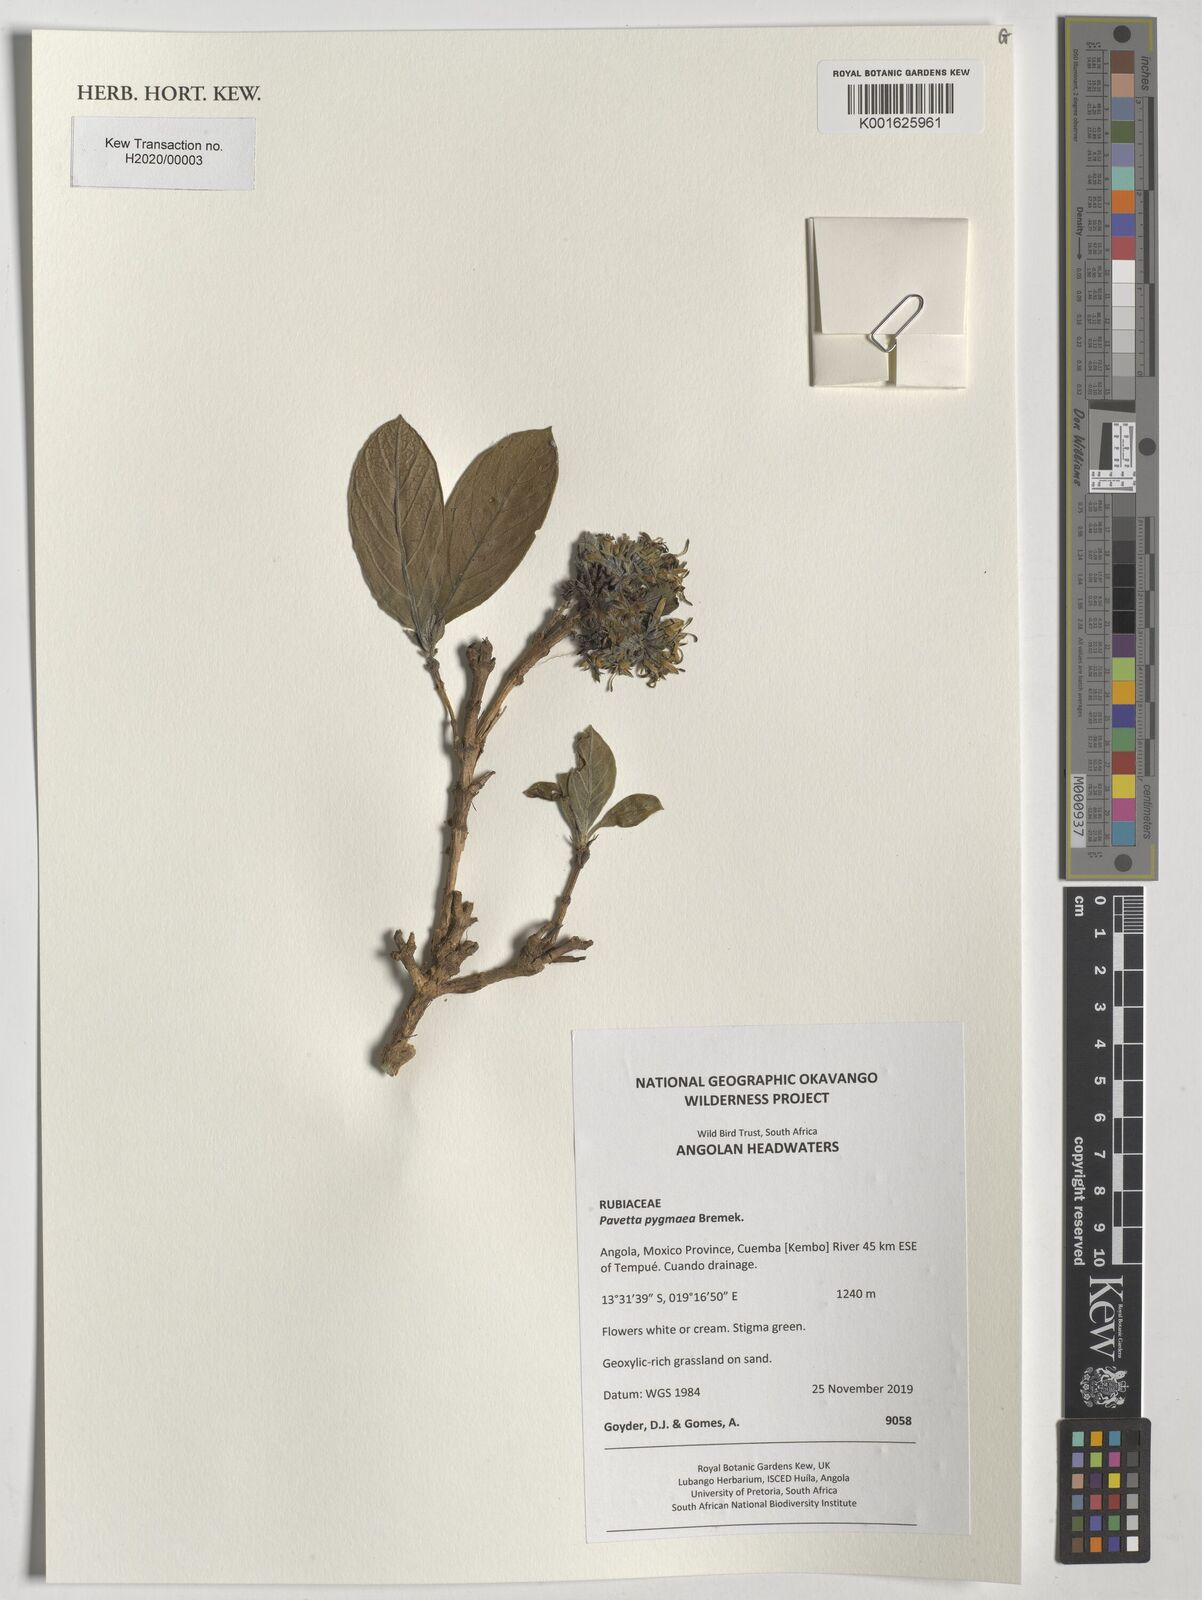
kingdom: Plantae
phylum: Tracheophyta
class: Magnoliopsida
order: Gentianales
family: Rubiaceae
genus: Pavetta
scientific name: Pavetta pygmaea
